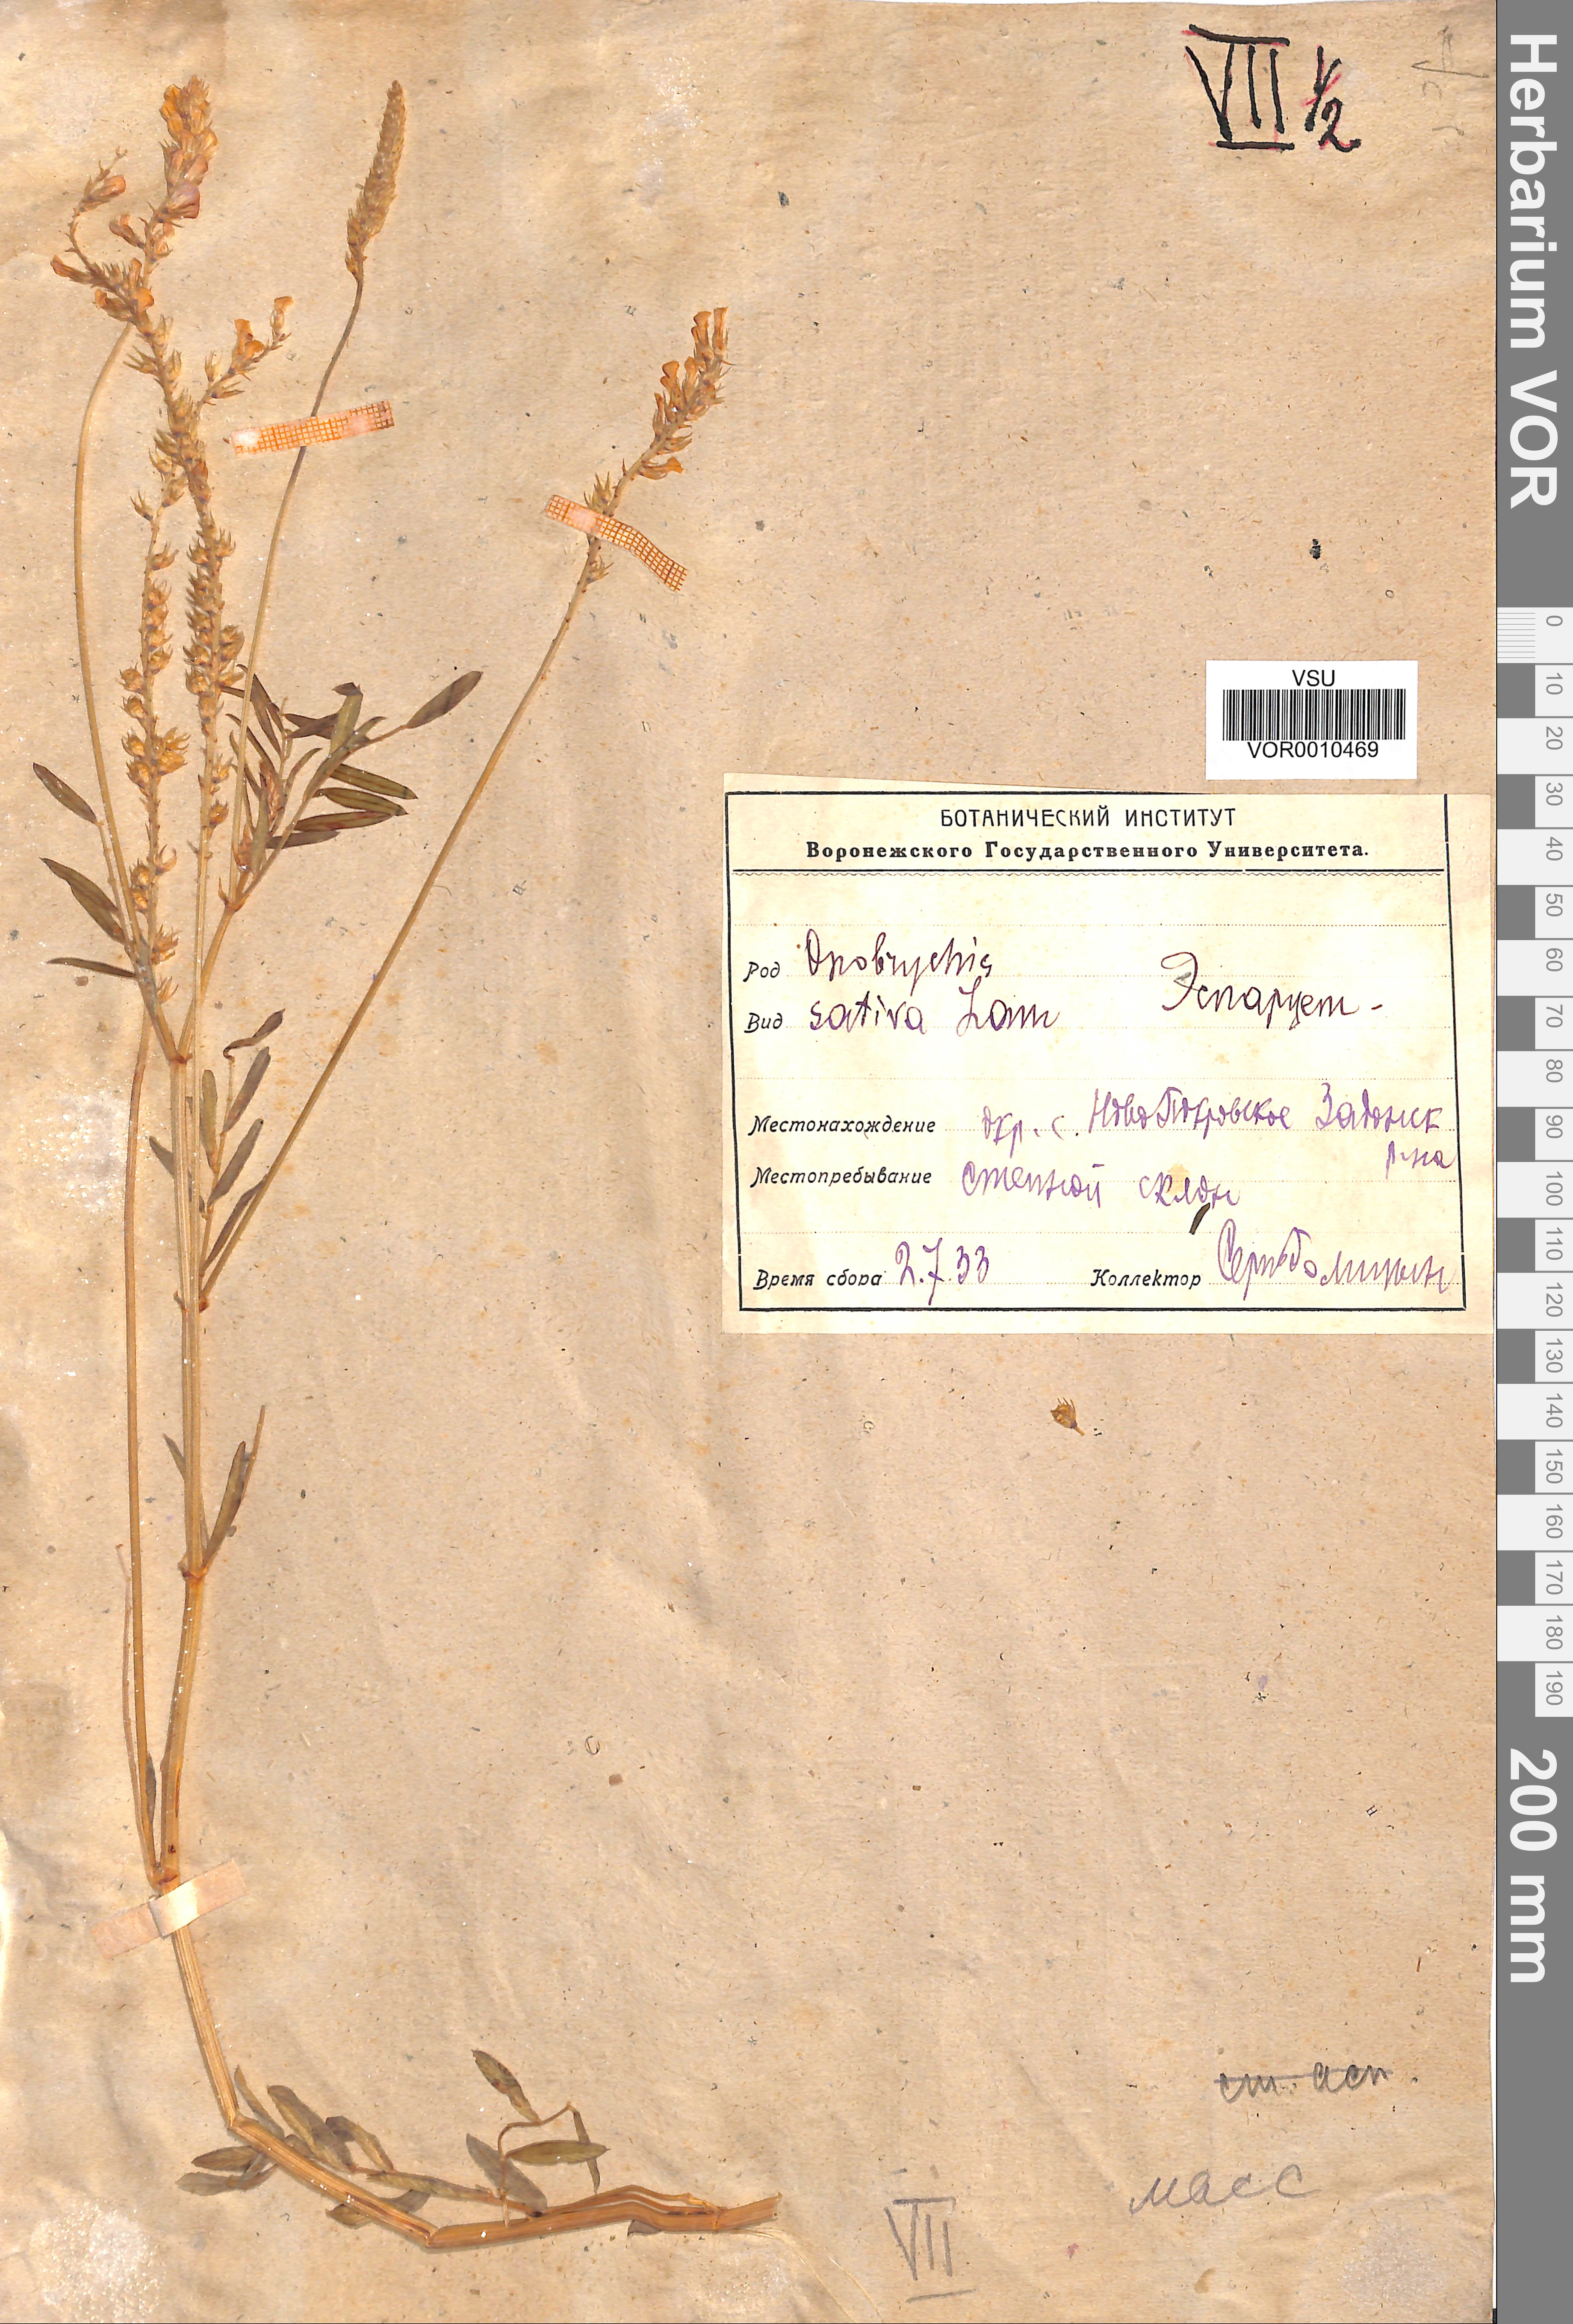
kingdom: Plantae
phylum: Tracheophyta
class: Magnoliopsida
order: Fabales
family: Fabaceae
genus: Onobrychis
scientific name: Onobrychis viciifolia
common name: Sainfoin
